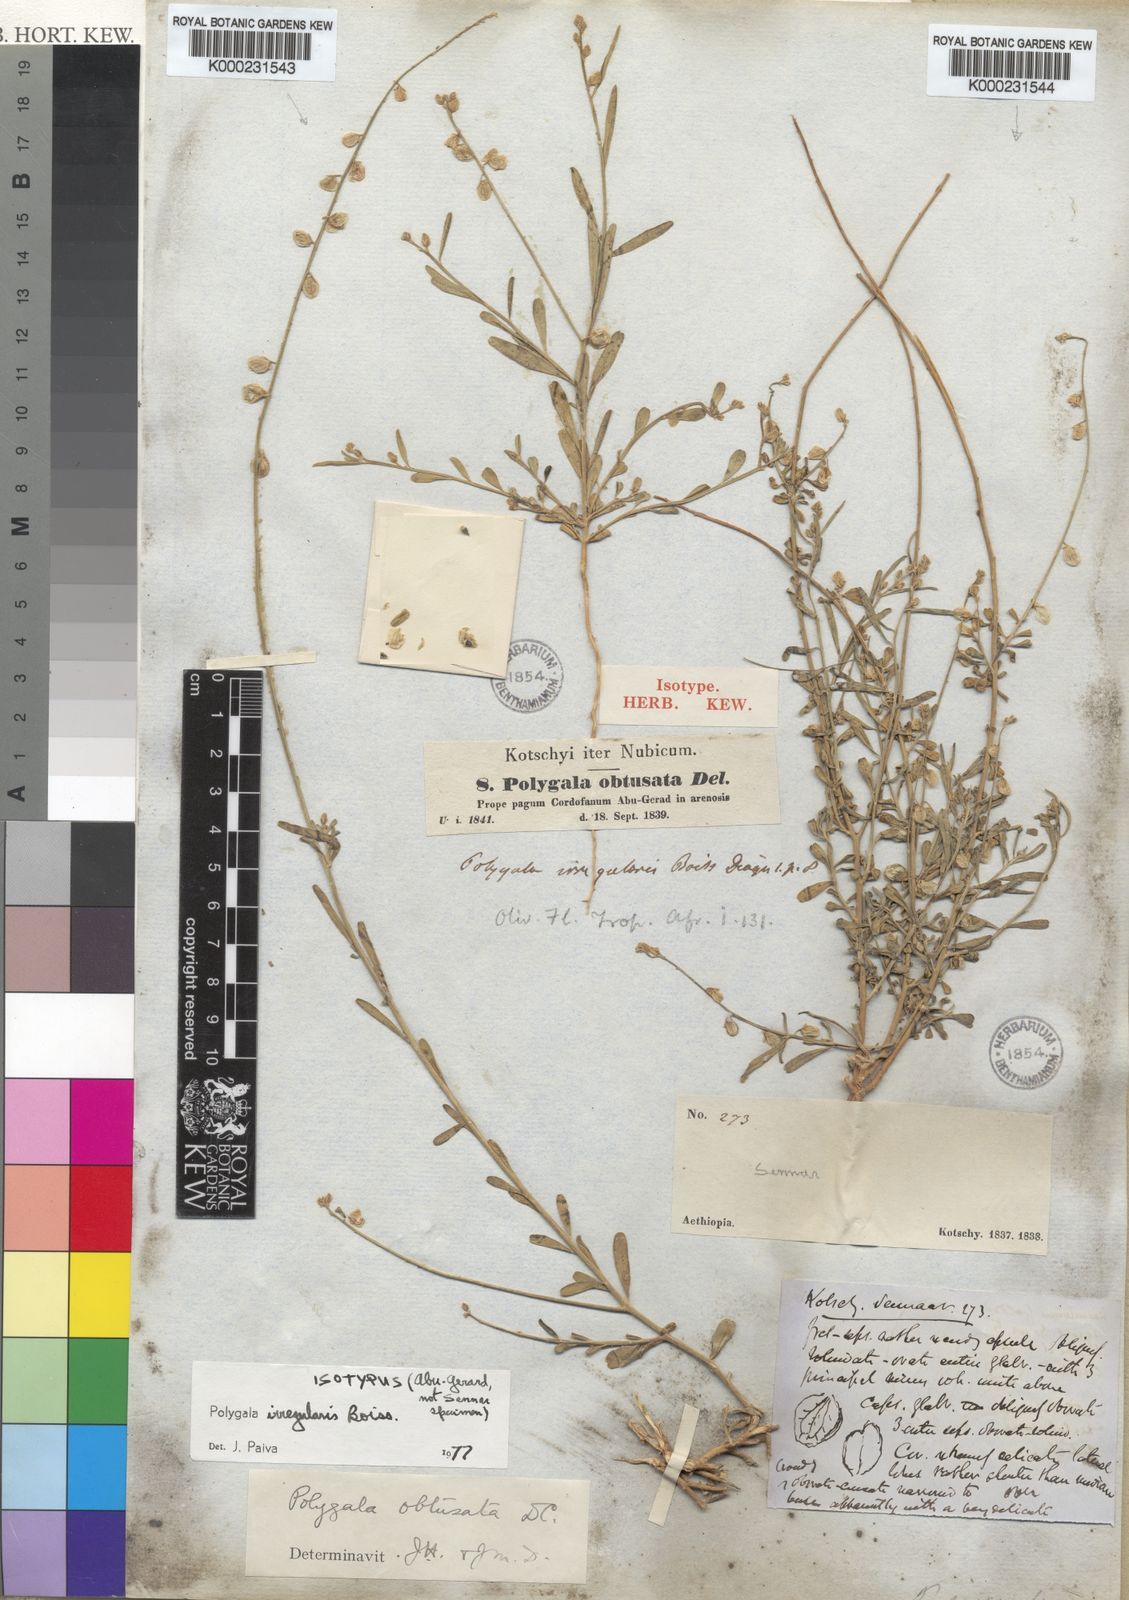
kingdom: Plantae
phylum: Tracheophyta
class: Magnoliopsida
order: Fabales
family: Polygalaceae
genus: Polygala
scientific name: Polygala irregularis
